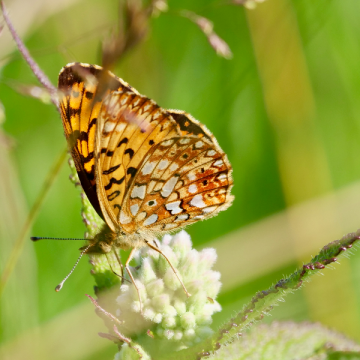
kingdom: Animalia
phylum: Arthropoda
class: Insecta
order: Lepidoptera
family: Nymphalidae
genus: Boloria
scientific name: Boloria selene
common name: Silver-bordered Fritillary
